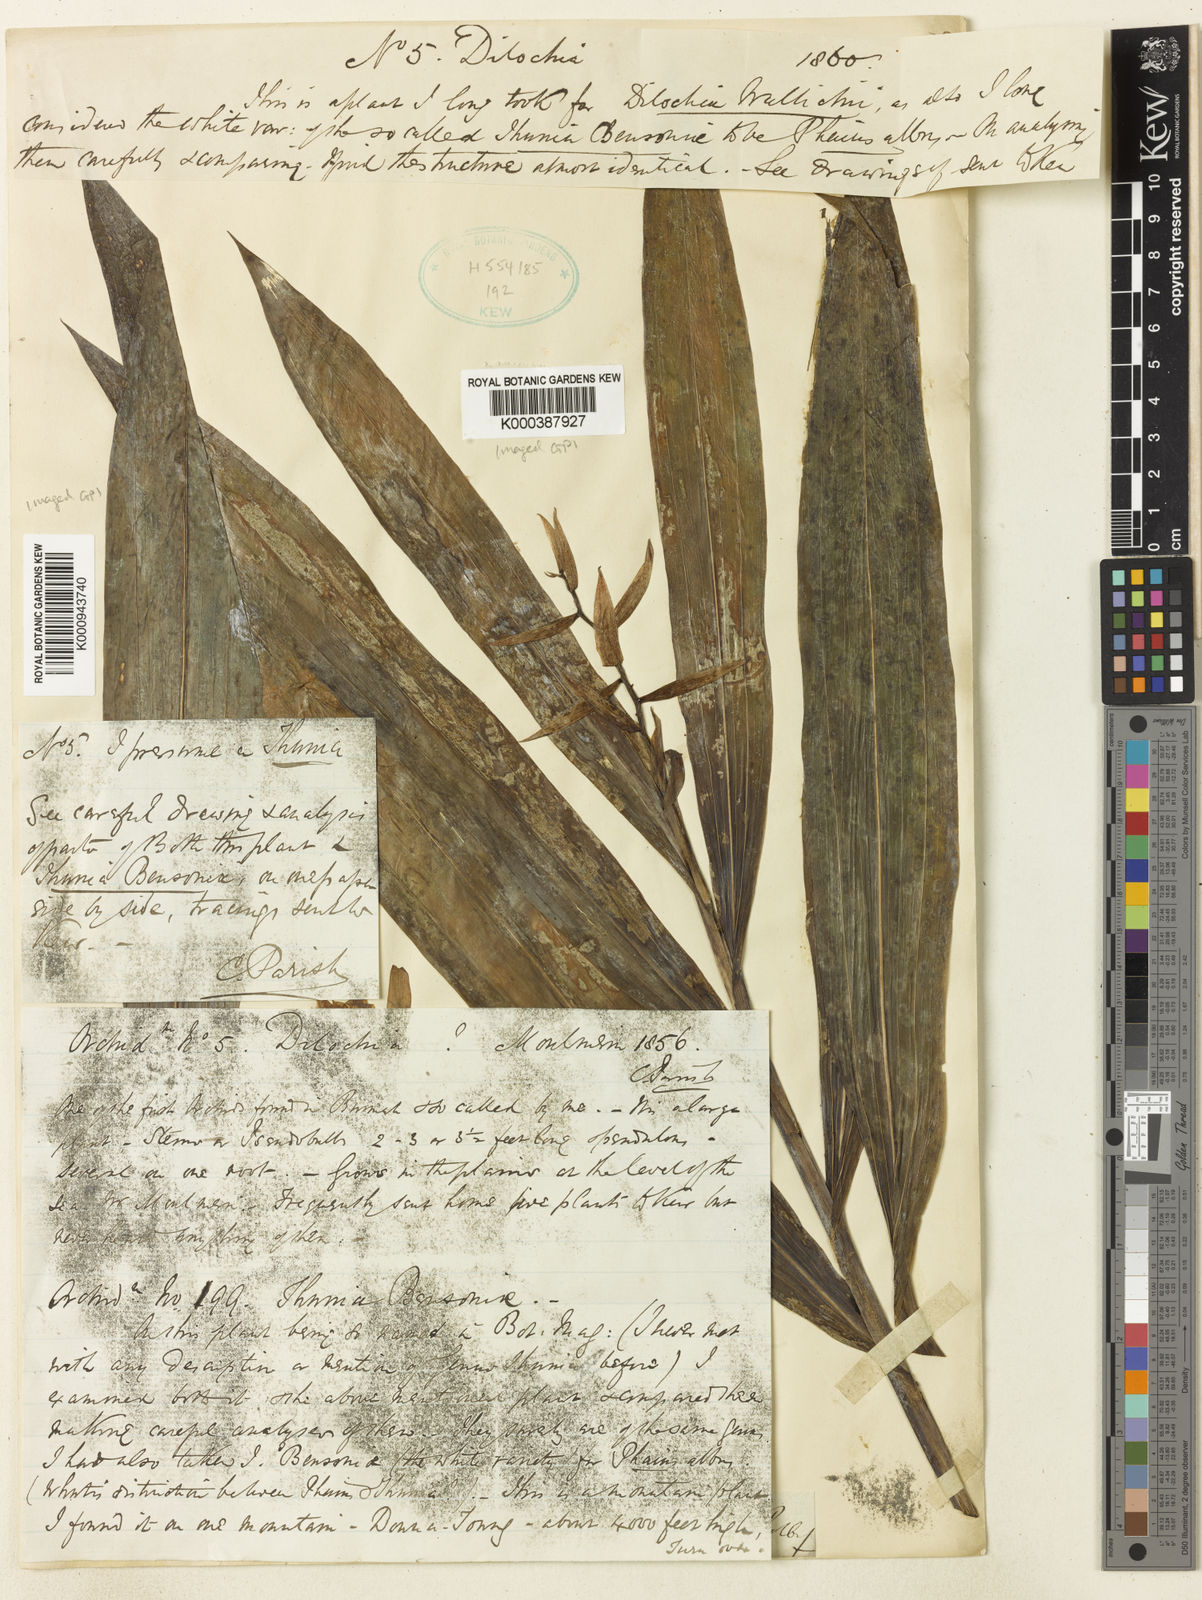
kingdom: Plantae
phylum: Tracheophyta
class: Liliopsida
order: Asparagales
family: Orchidaceae
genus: Thunia
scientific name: Thunia pulchra
